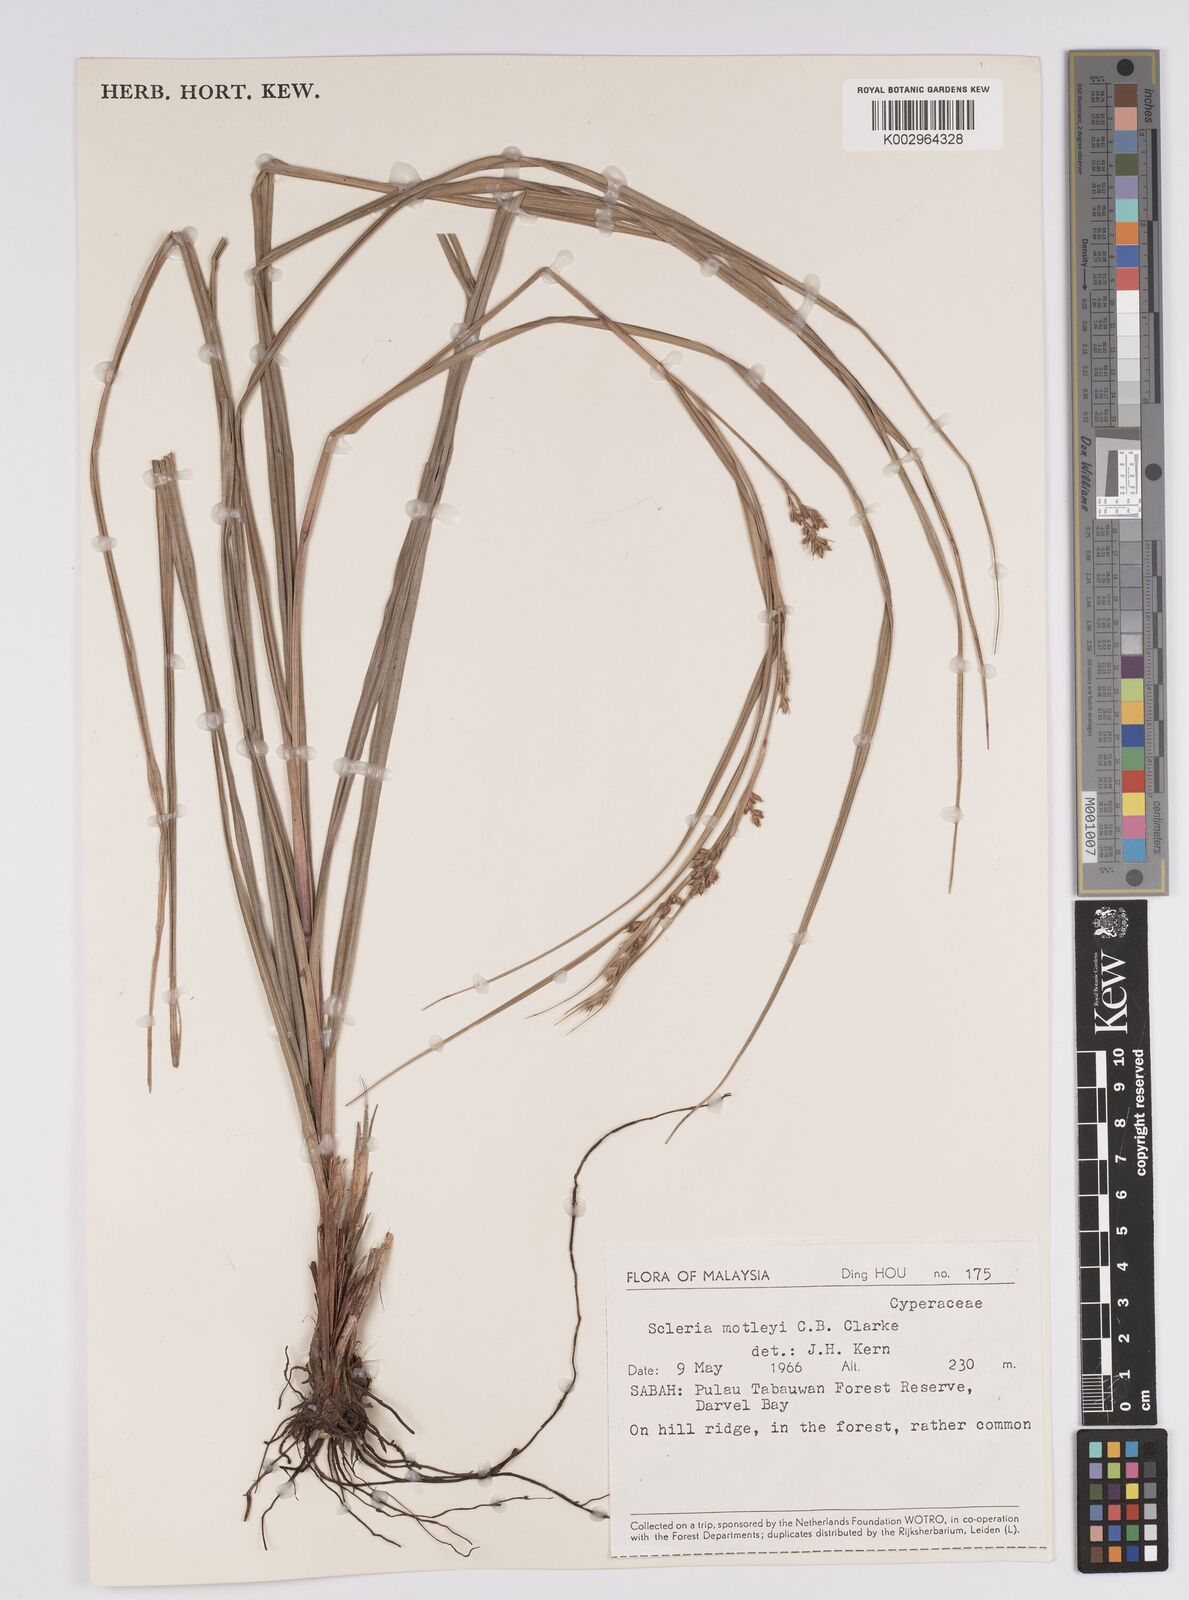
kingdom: Plantae
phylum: Tracheophyta
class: Liliopsida
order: Poales
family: Cyperaceae
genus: Scleria
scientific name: Scleria motleyi
